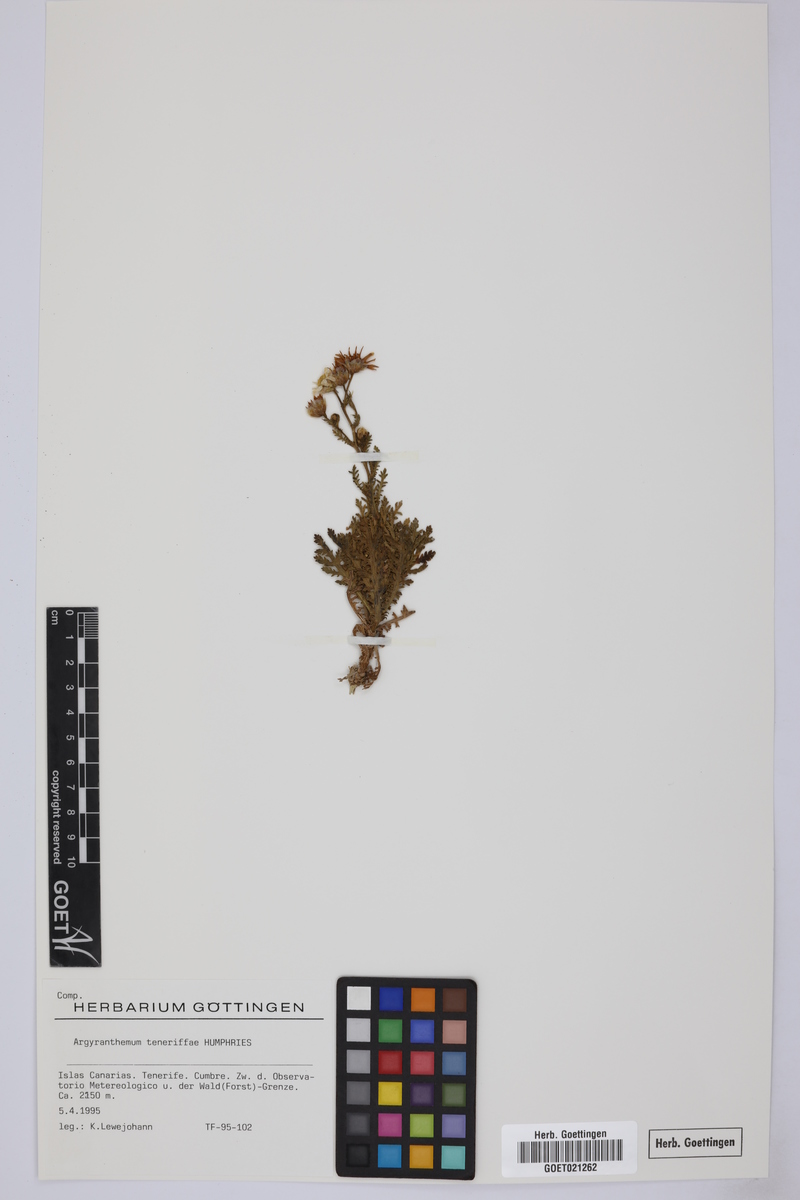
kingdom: Plantae
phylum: Tracheophyta
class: Magnoliopsida
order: Asterales
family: Asteraceae
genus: Argyranthemum
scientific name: Argyranthemum tenerifae
